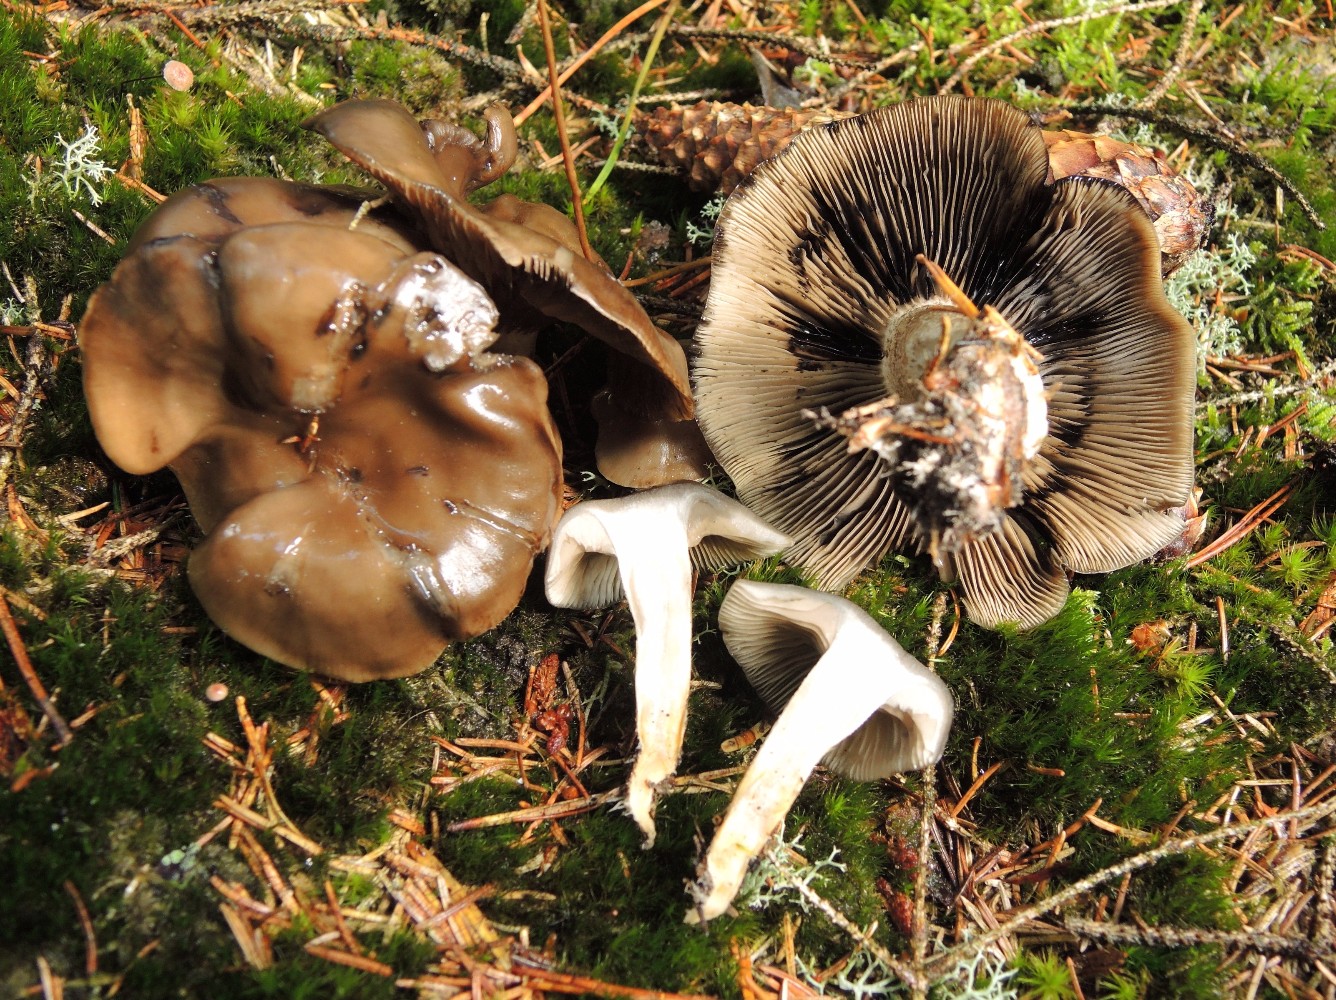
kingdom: Fungi
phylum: Basidiomycota
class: Agaricomycetes
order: Agaricales
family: Lyophyllaceae
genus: Lyophyllum
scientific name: Lyophyllum semitale
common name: sværtende gråblad
